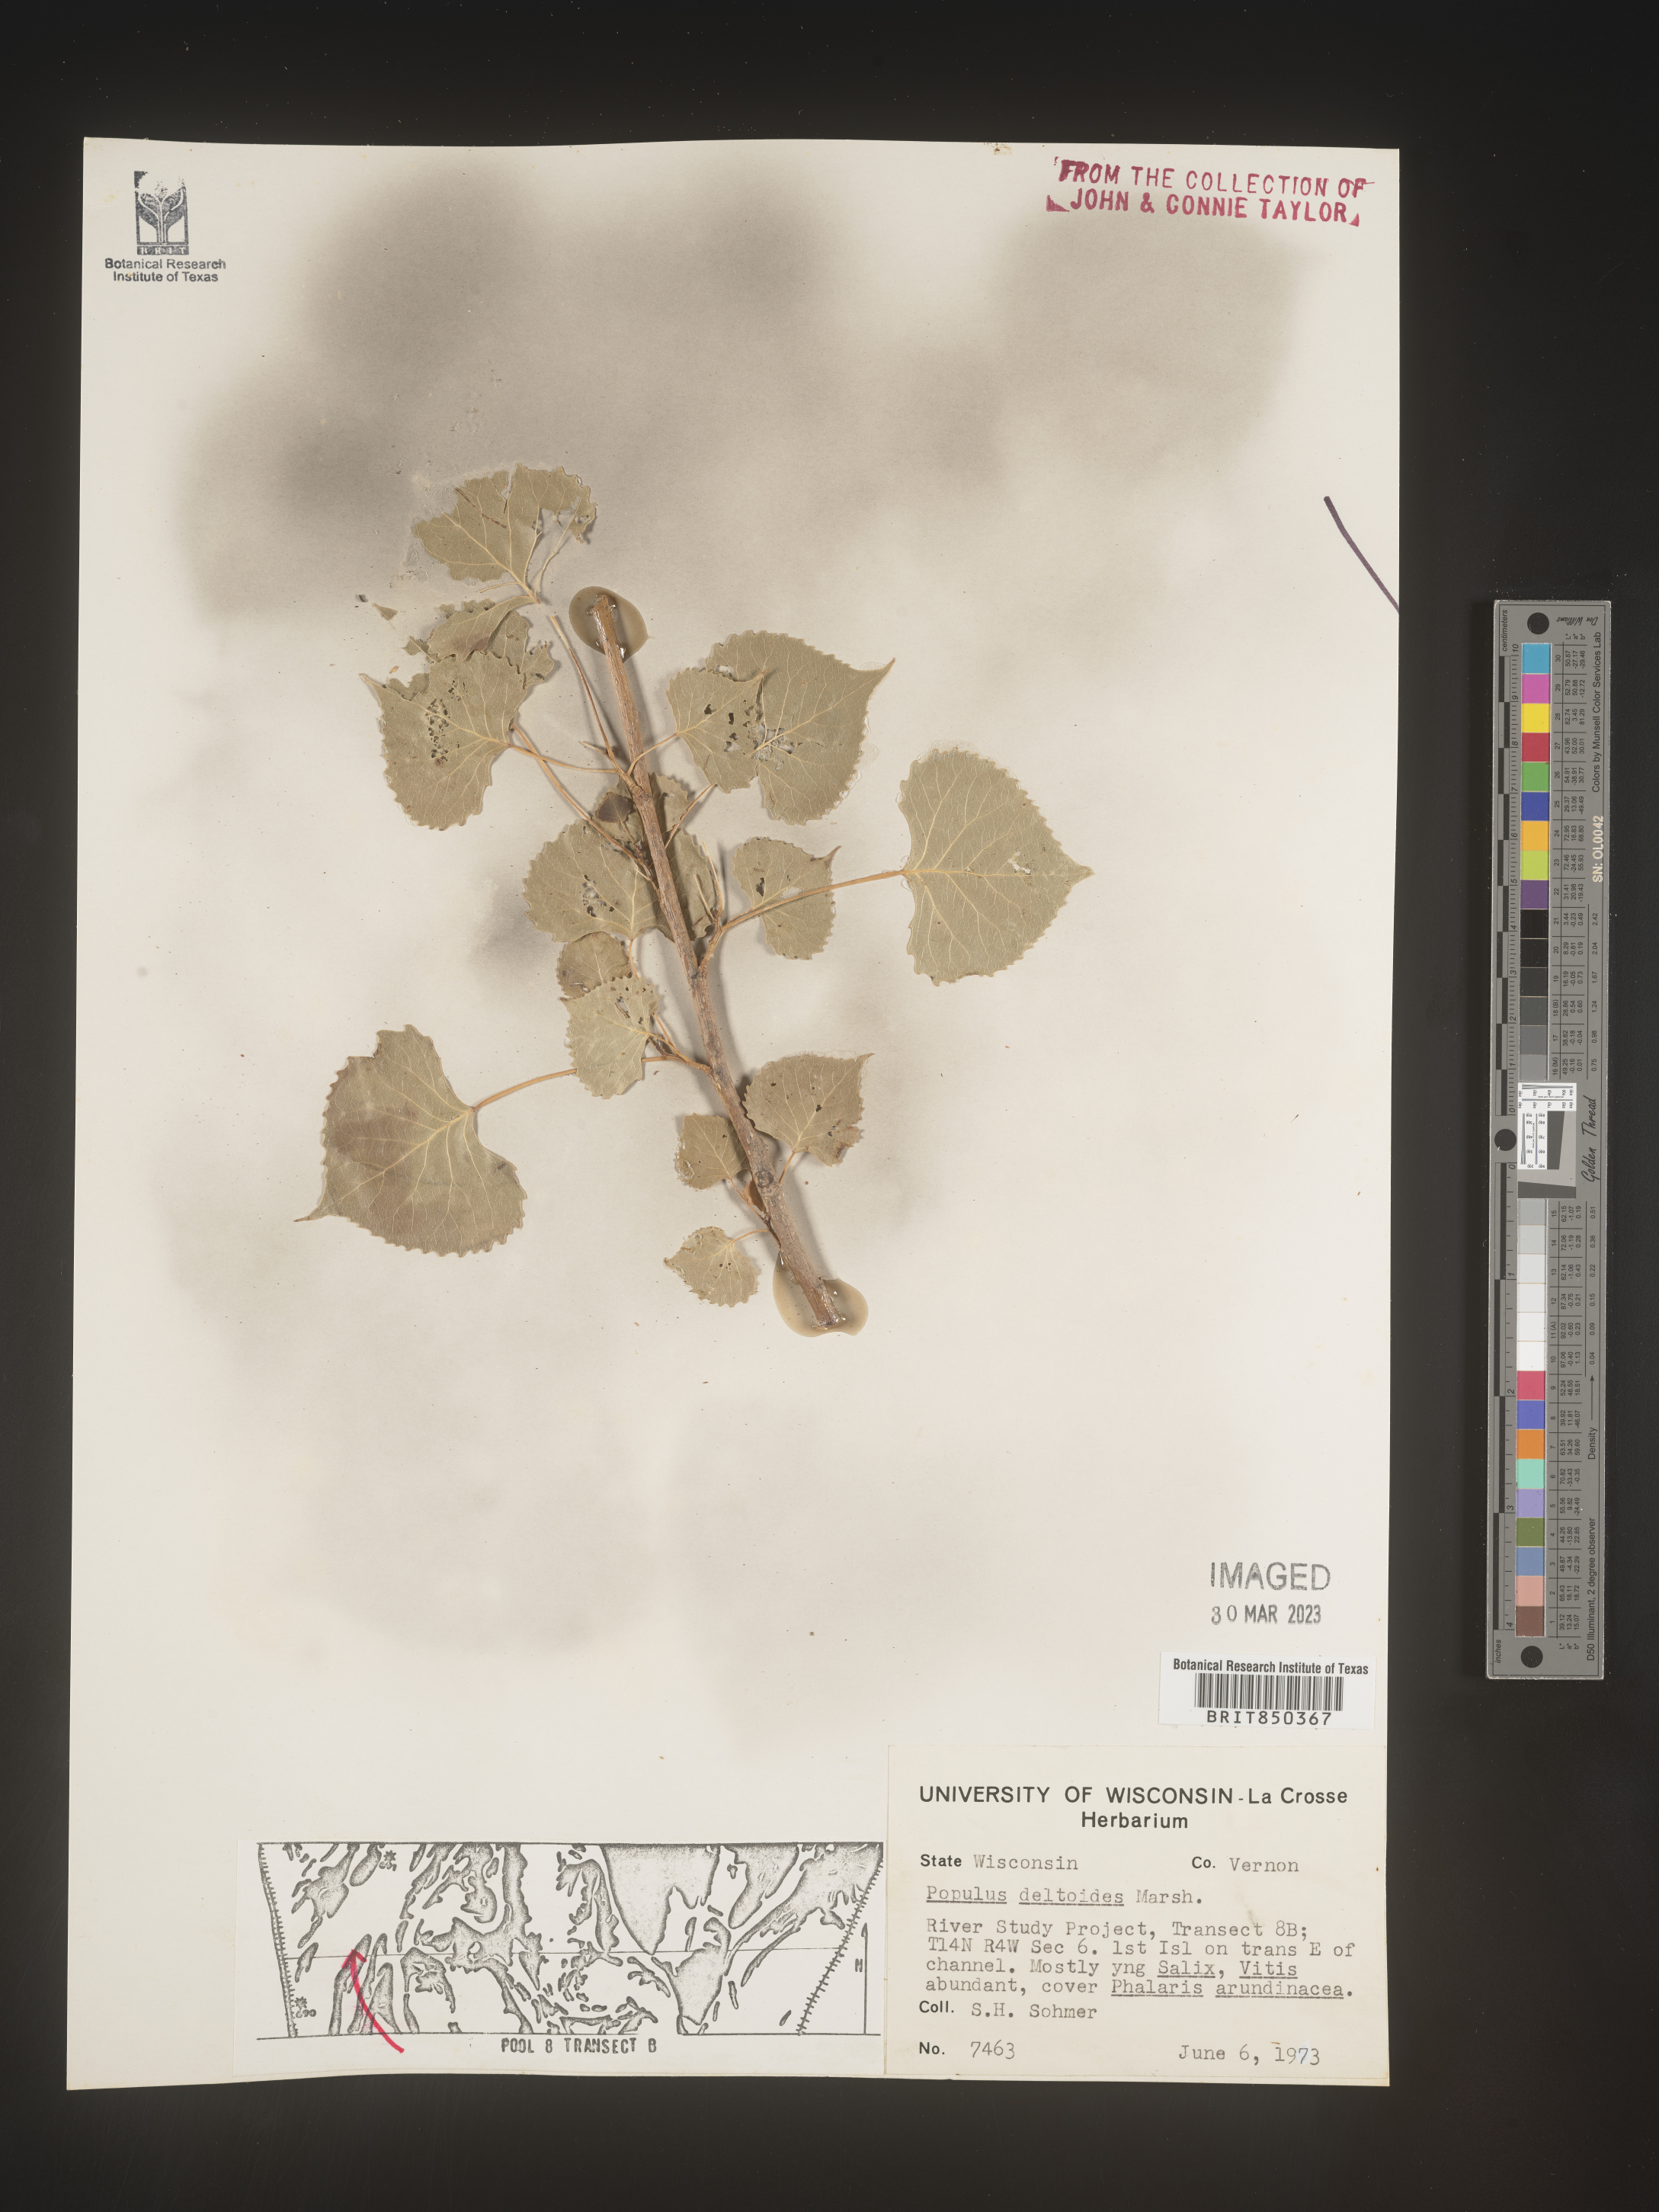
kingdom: Plantae
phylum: Tracheophyta
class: Magnoliopsida
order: Malpighiales
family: Salicaceae
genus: Populus
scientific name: Populus deltoides
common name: Eastern cottonwood
